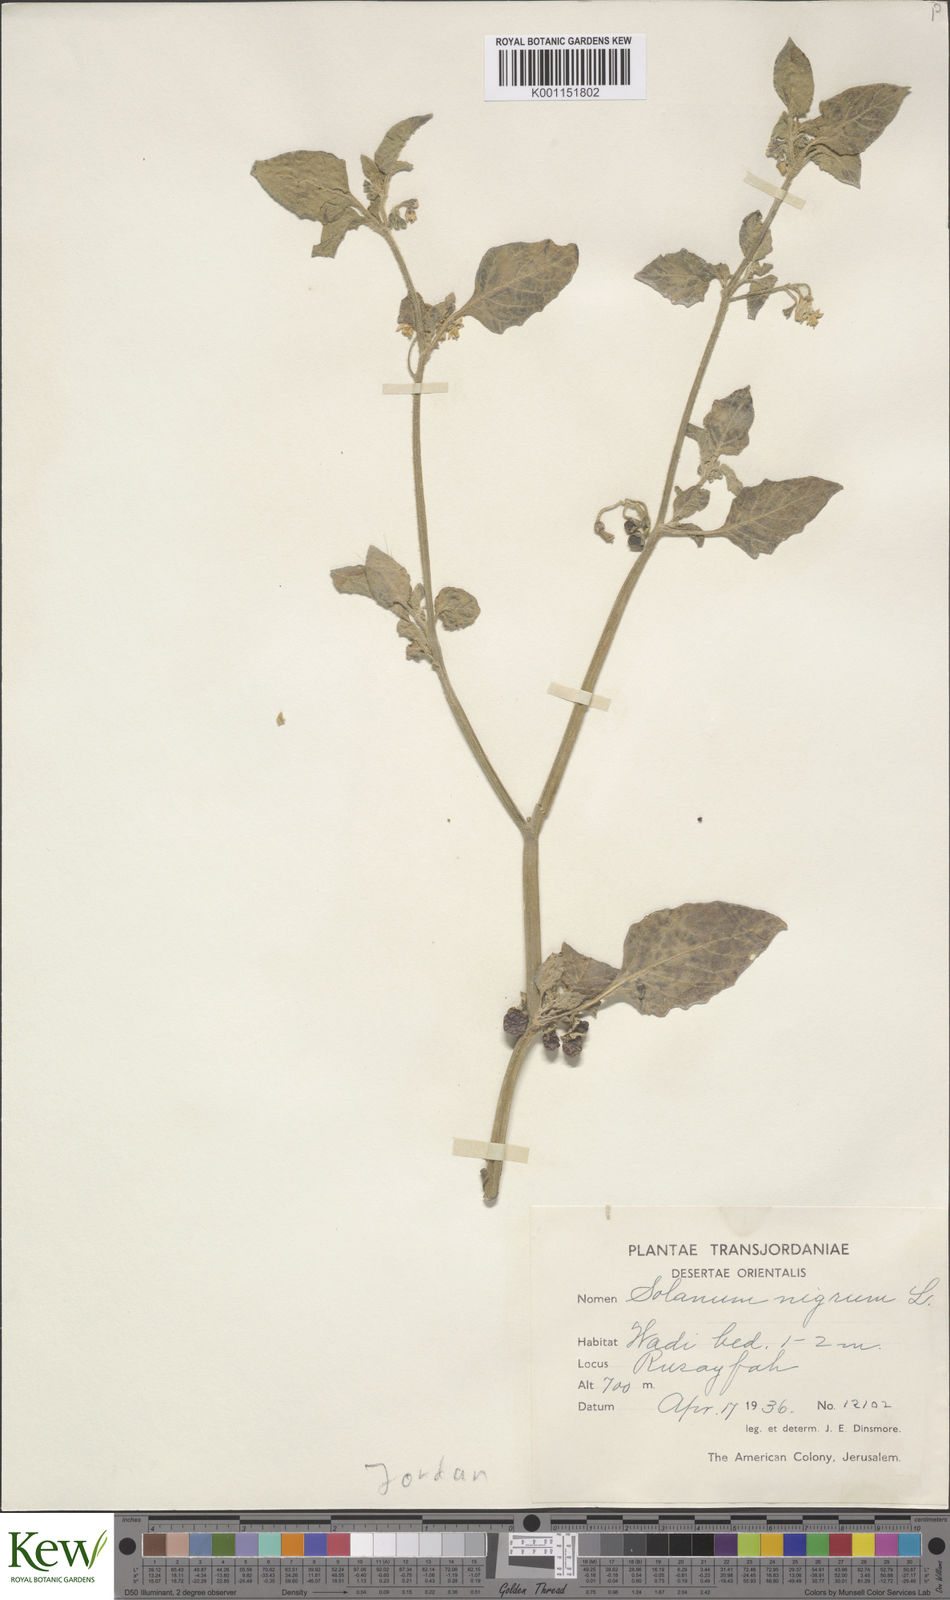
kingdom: Plantae
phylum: Tracheophyta
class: Magnoliopsida
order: Solanales
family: Solanaceae
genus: Solanum
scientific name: Solanum
